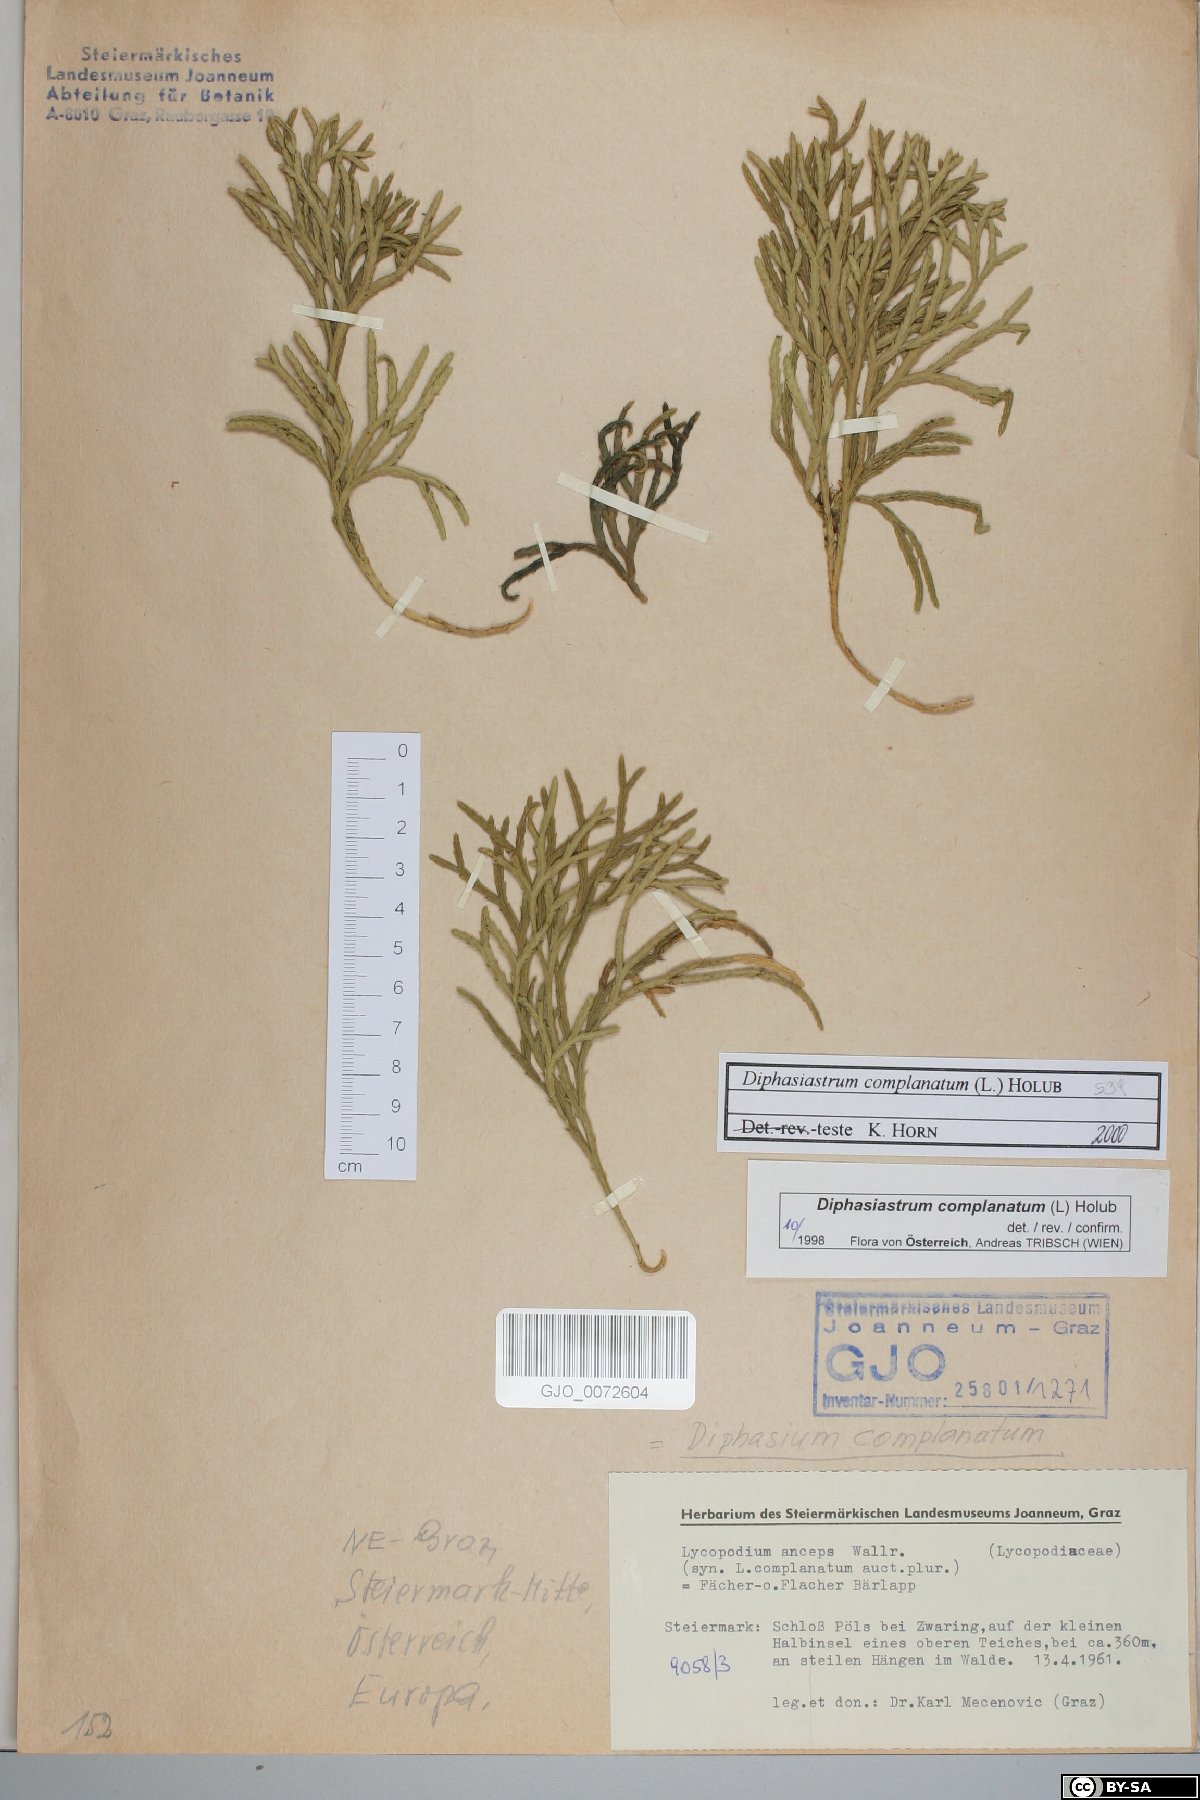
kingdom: Plantae
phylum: Tracheophyta
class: Lycopodiopsida
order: Lycopodiales
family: Lycopodiaceae
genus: Diphasiastrum
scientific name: Diphasiastrum complanatum
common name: Northern running-pine
